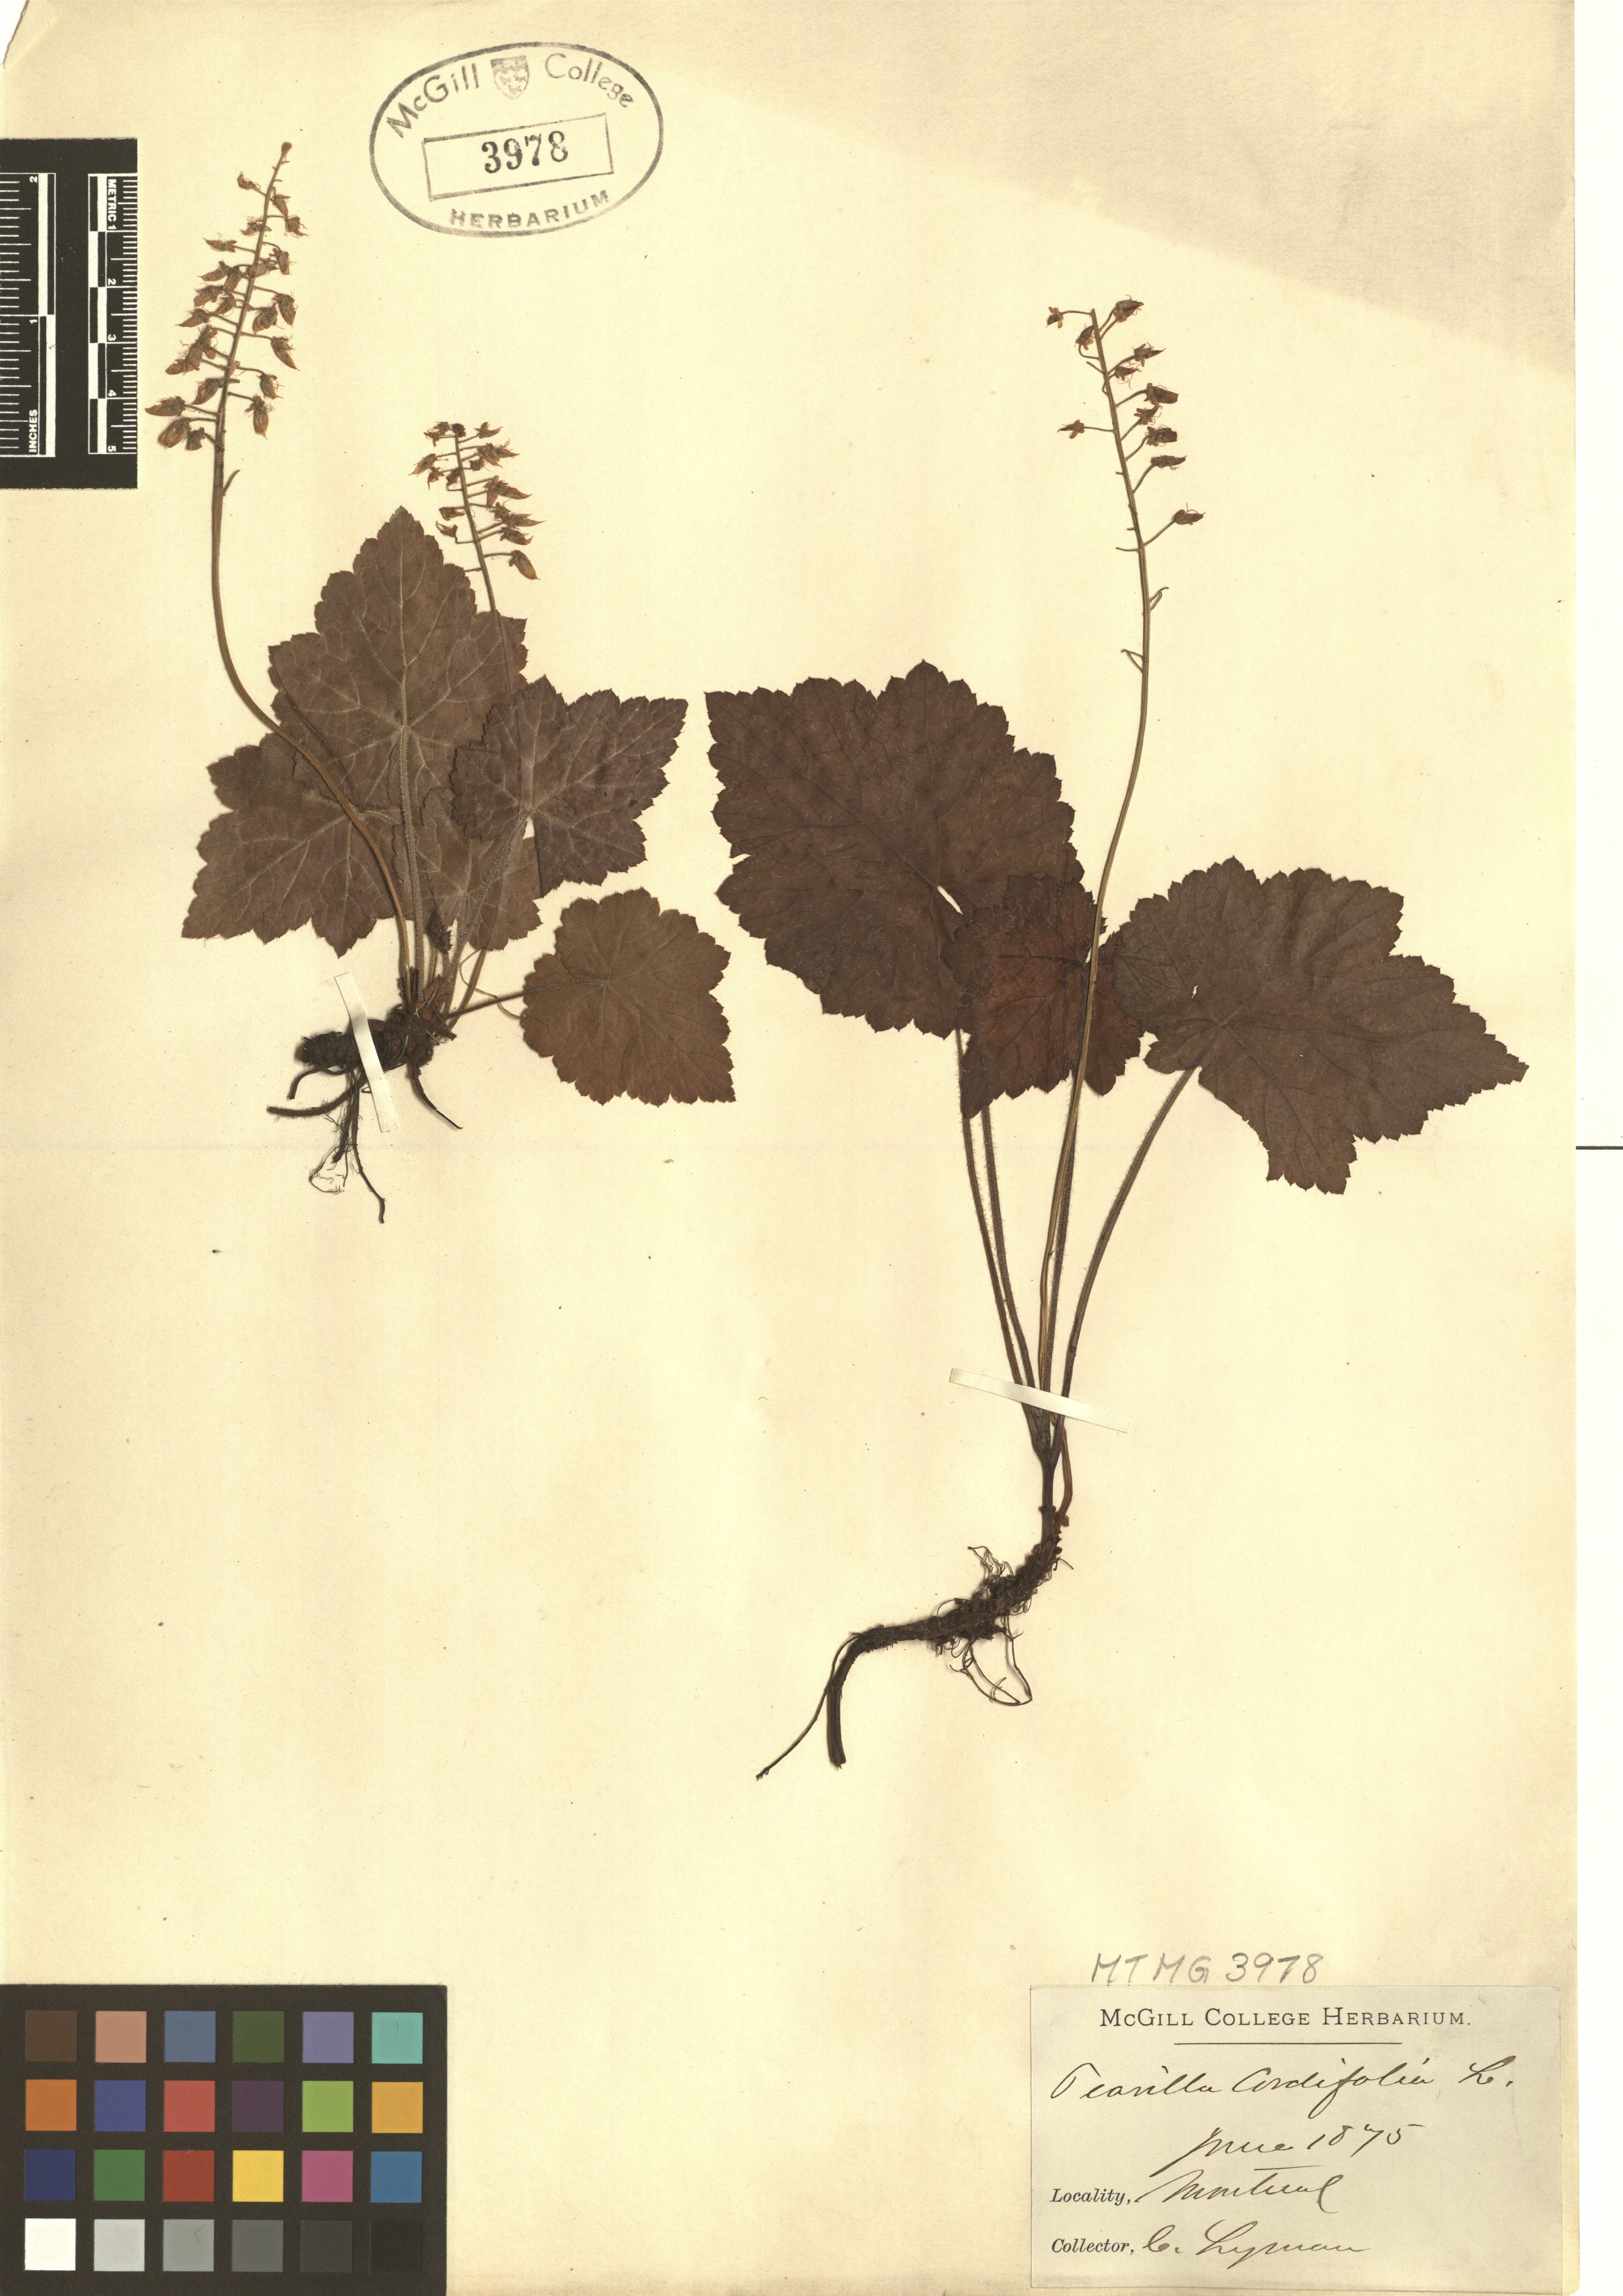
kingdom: Plantae
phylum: Tracheophyta
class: Magnoliopsida
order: Saxifragales
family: Saxifragaceae
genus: Tiarella
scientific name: Tiarella cordifolia
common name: Foamflower
